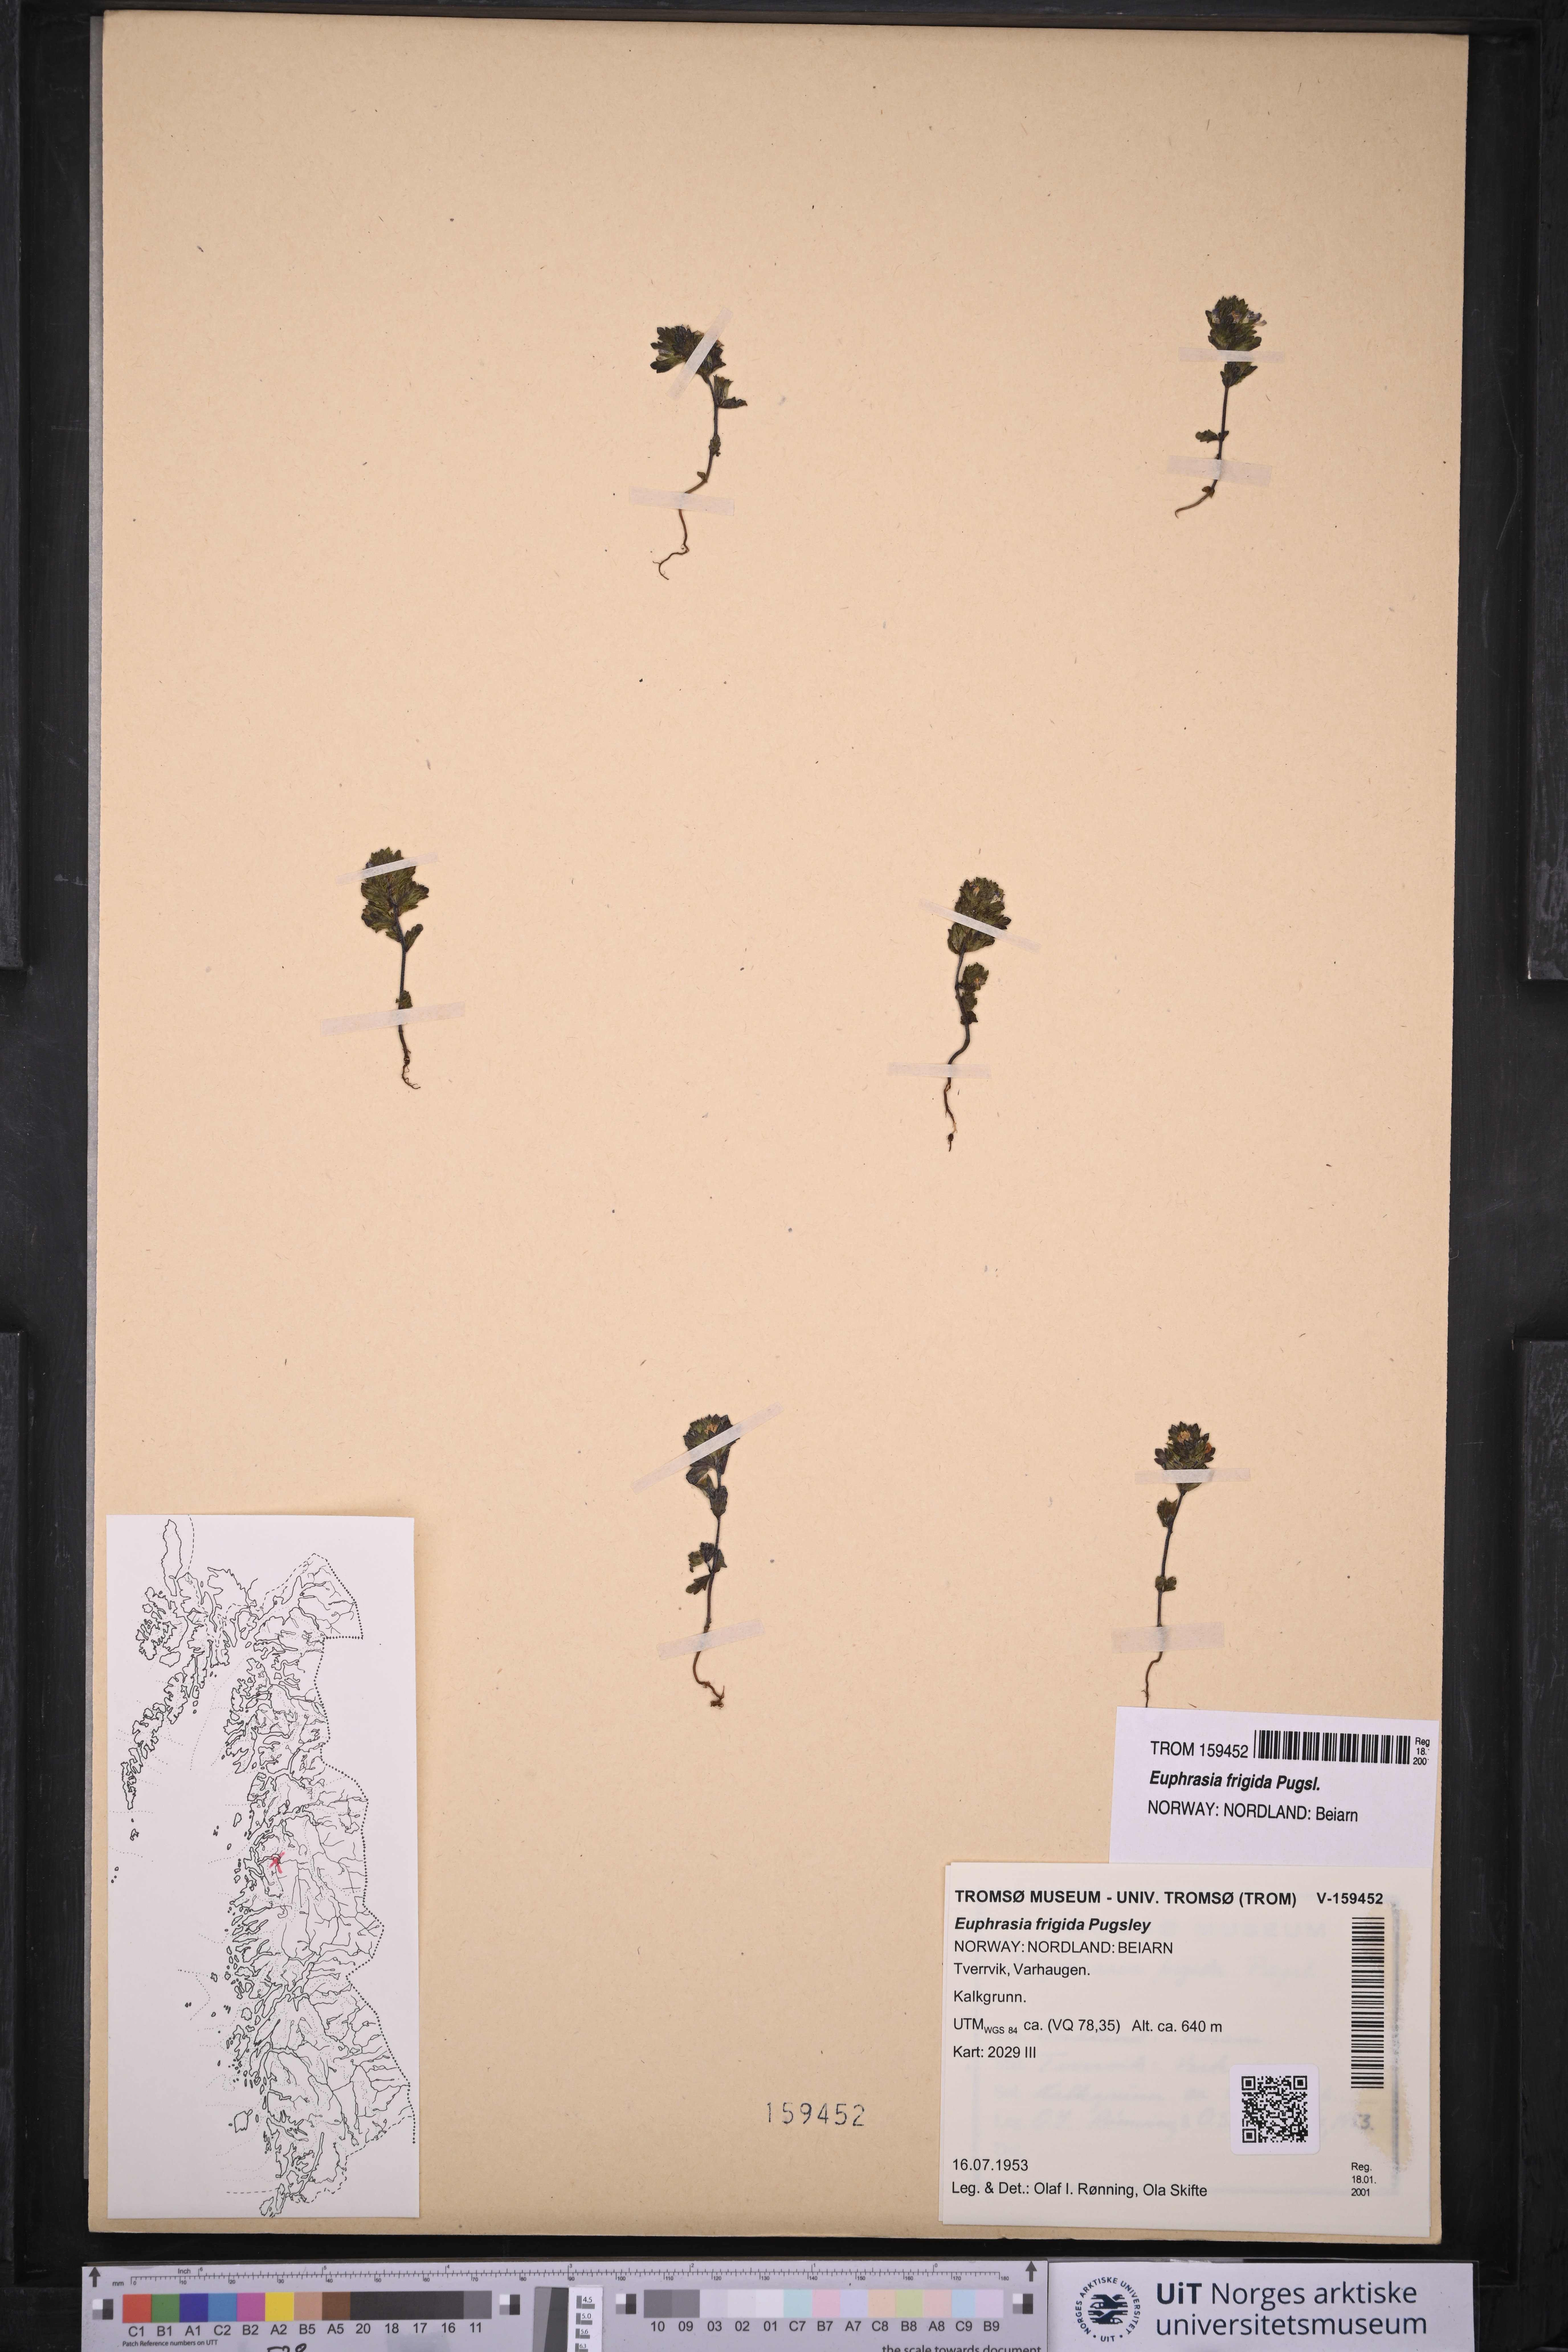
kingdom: Plantae
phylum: Tracheophyta
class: Magnoliopsida
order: Lamiales
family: Orobanchaceae
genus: Euphrasia
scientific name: Euphrasia frigida
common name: An eyebright
